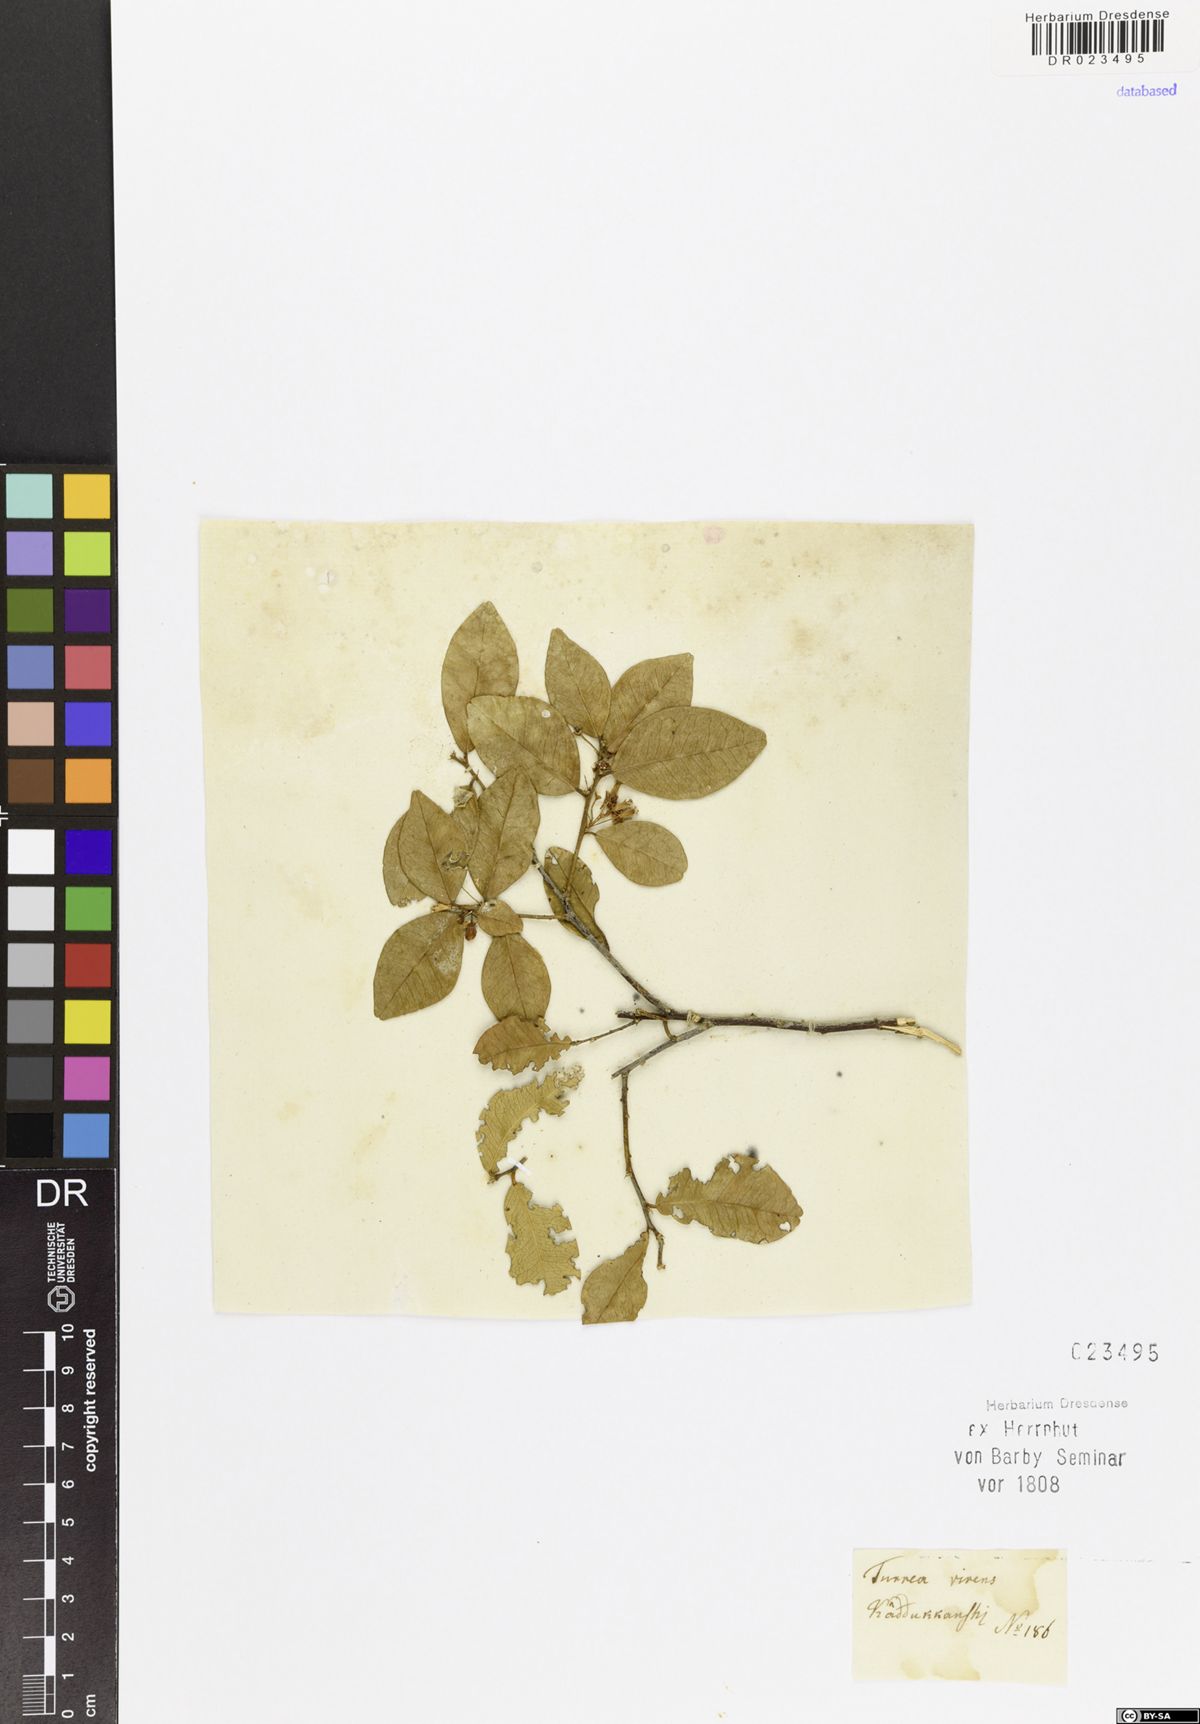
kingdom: Plantae
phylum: Tracheophyta
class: Magnoliopsida
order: Sapindales
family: Meliaceae
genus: Turraea
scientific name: Turraea
